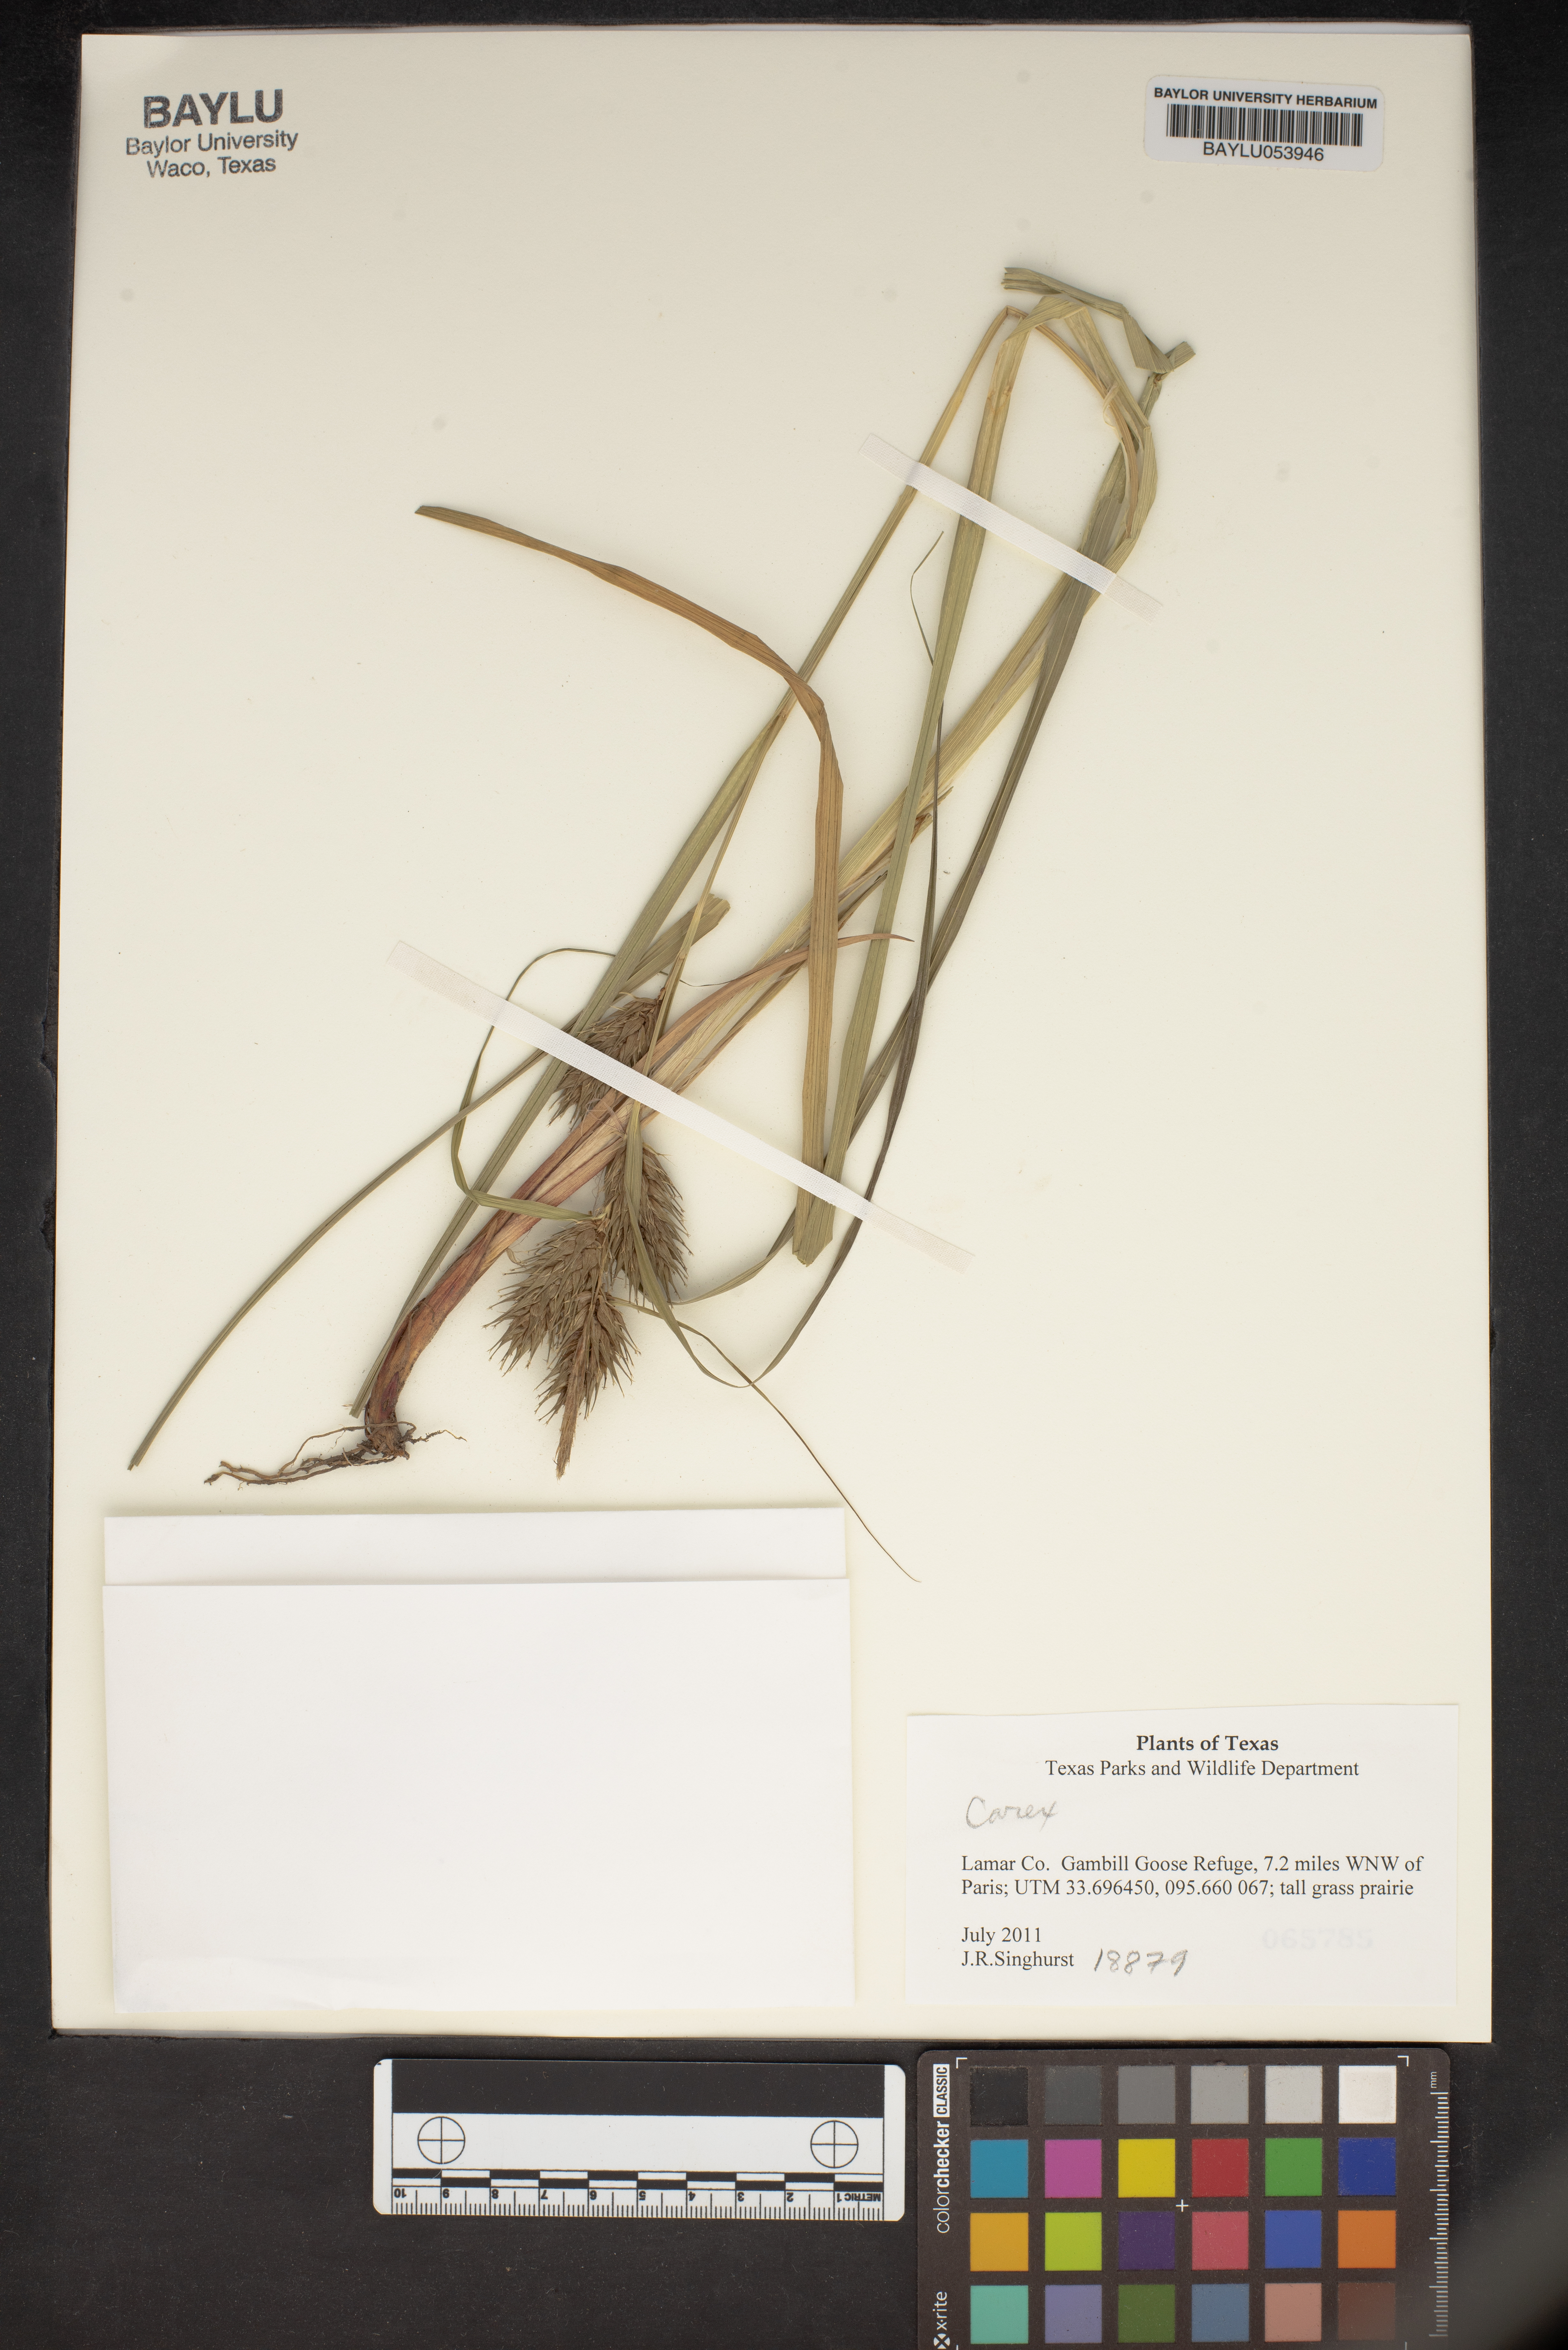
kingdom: Plantae
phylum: Tracheophyta
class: Liliopsida
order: Poales
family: Cyperaceae
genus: Carex
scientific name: Carex
